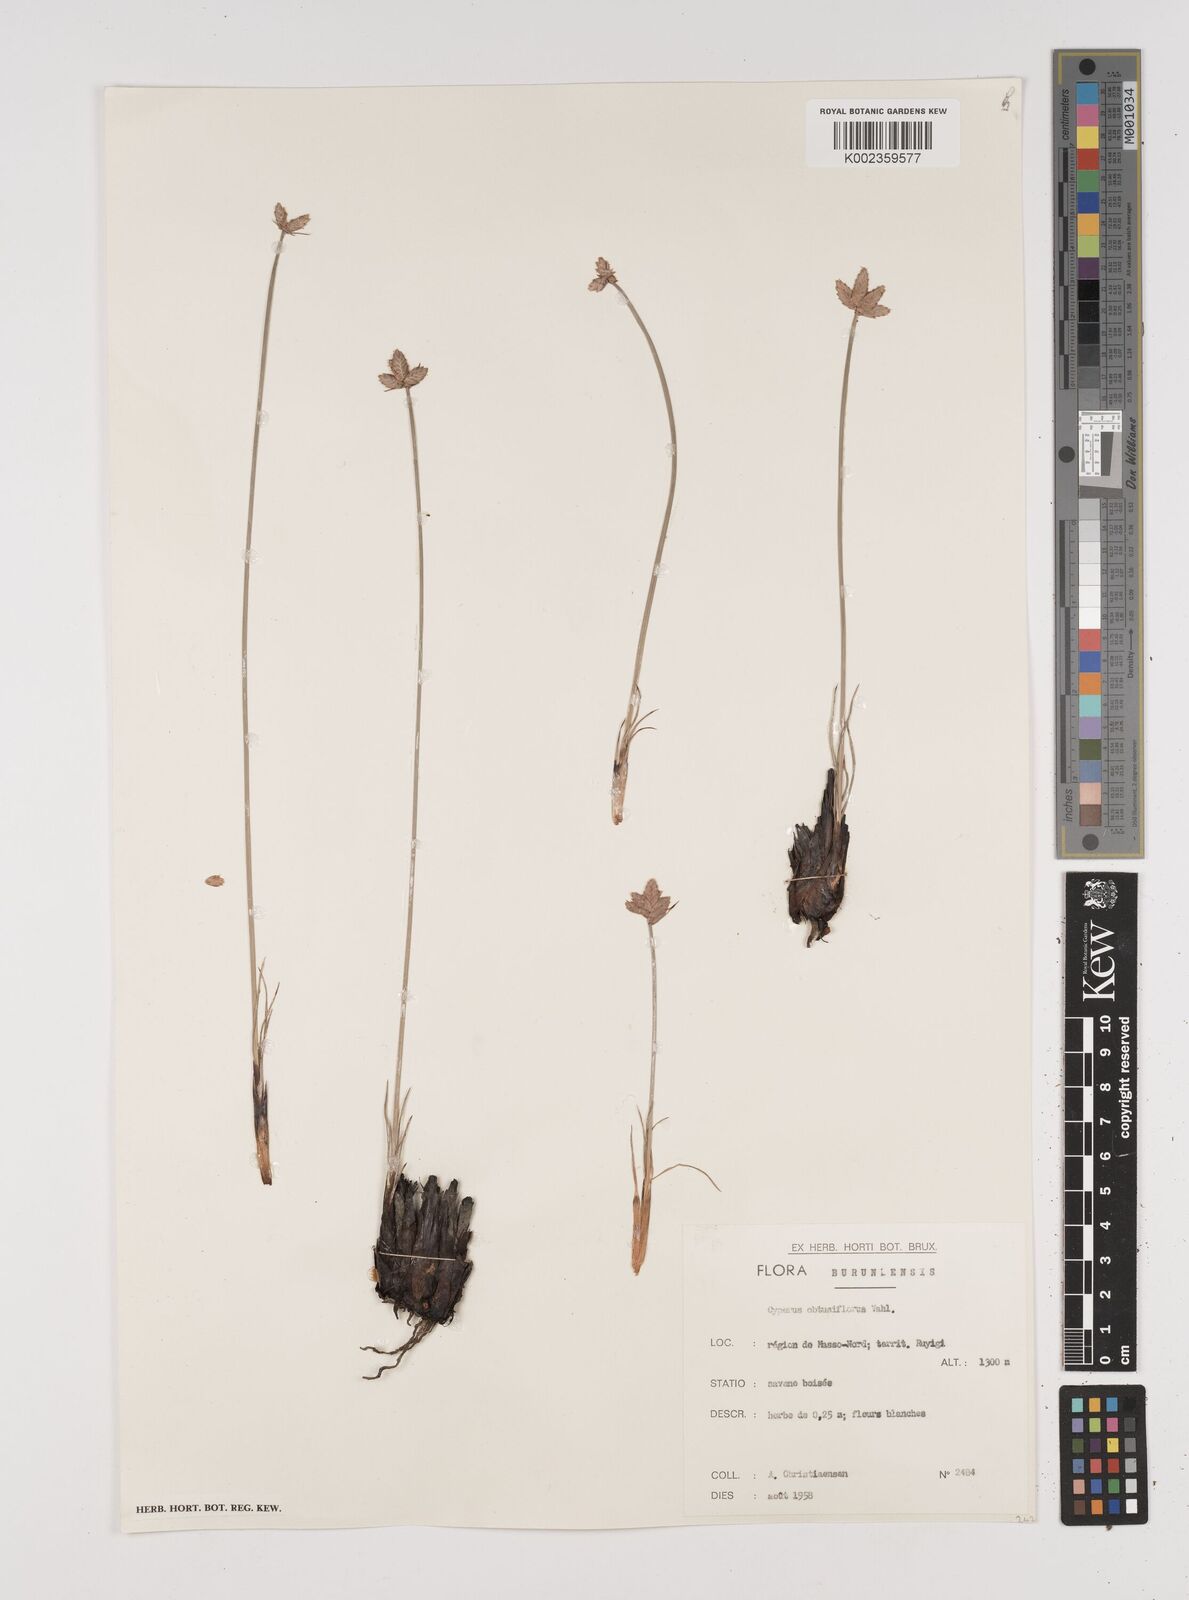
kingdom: Plantae
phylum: Tracheophyta
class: Liliopsida
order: Poales
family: Cyperaceae
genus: Cyperus
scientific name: Cyperus nduru
